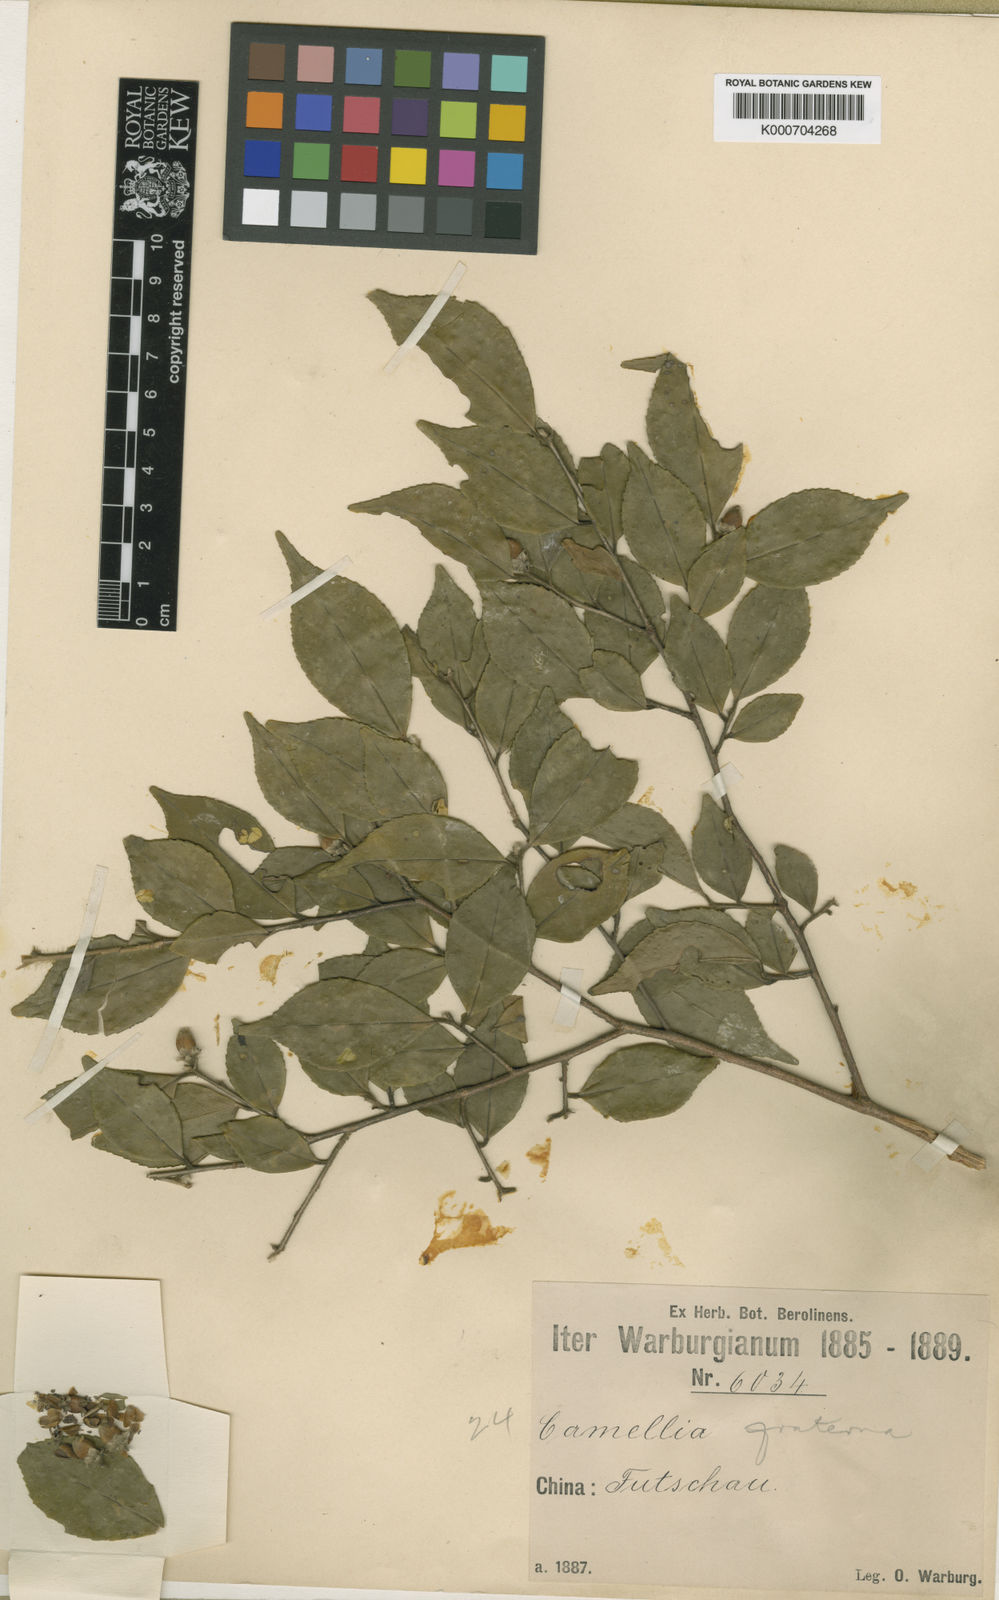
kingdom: Plantae
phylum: Tracheophyta
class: Magnoliopsida
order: Ericales
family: Theaceae
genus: Camellia
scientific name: Camellia fraterna
